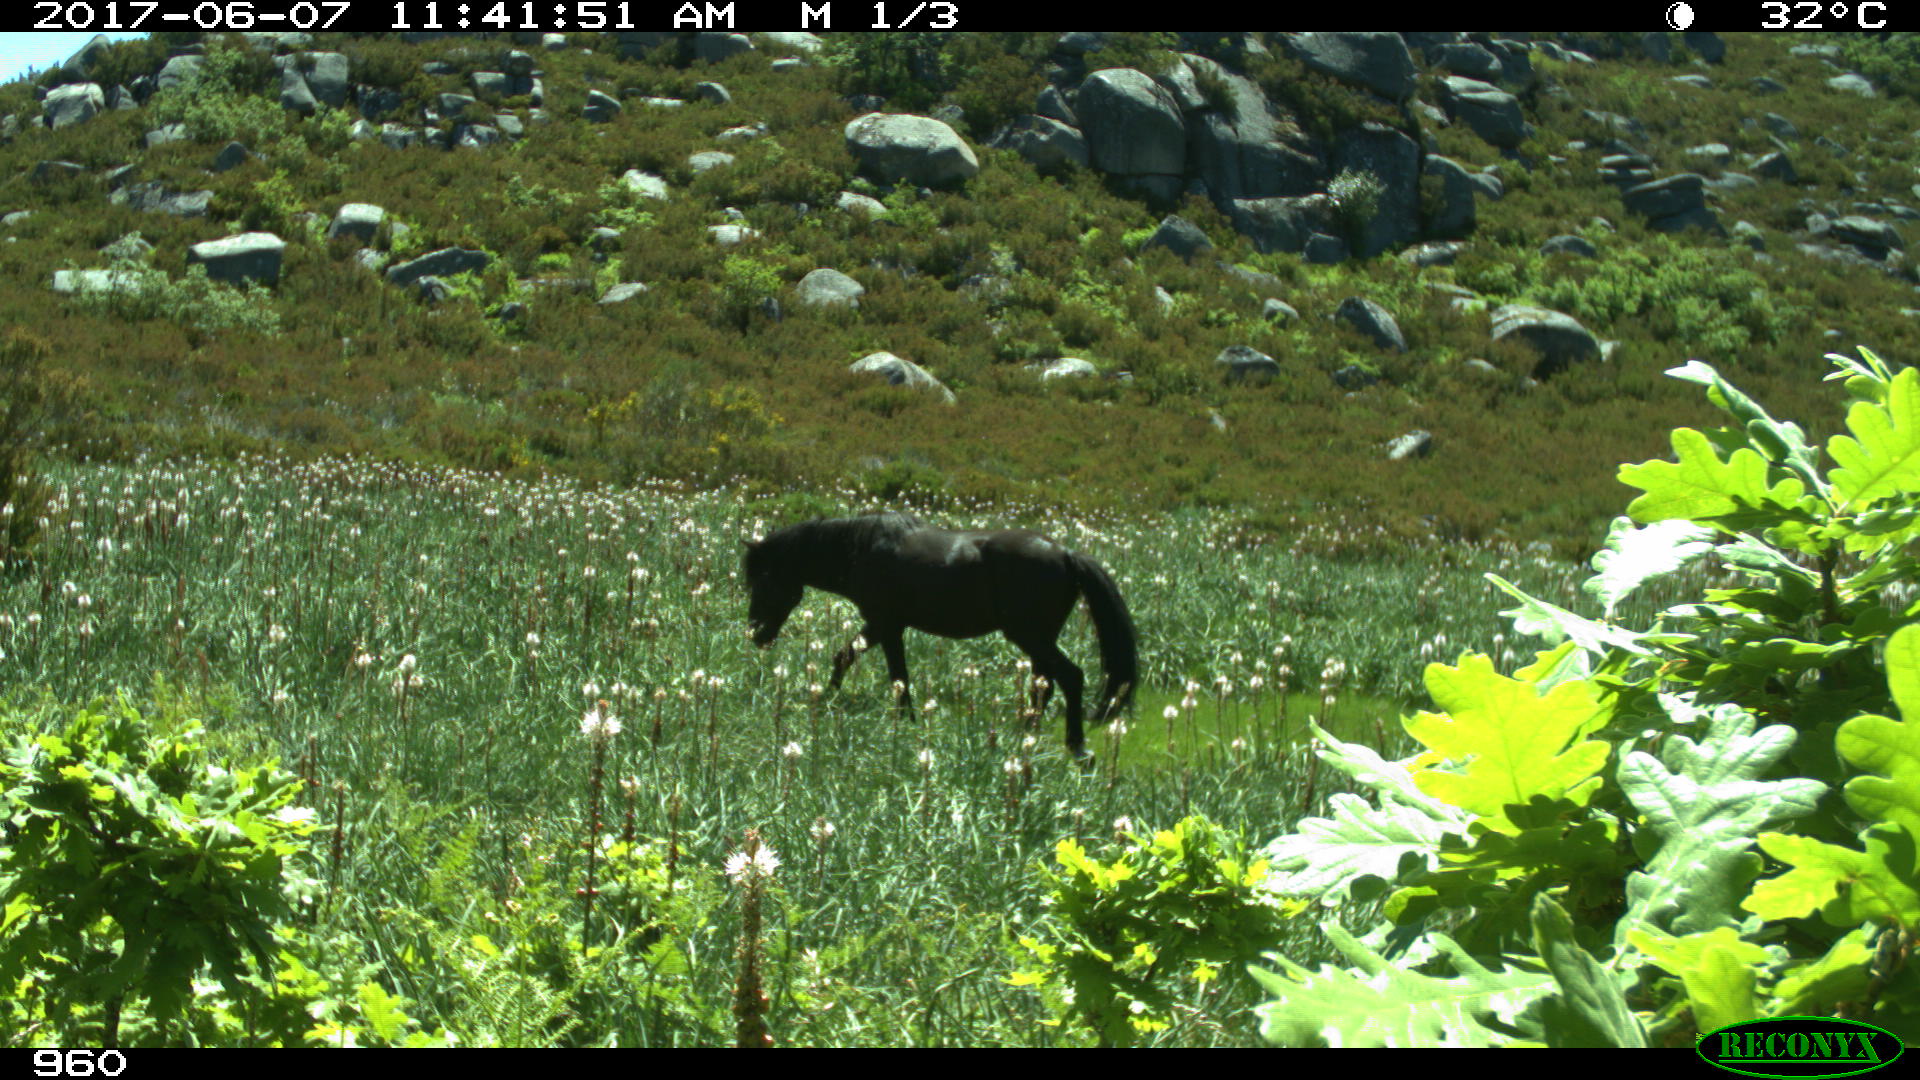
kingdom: Animalia
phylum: Chordata
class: Mammalia
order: Perissodactyla
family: Equidae
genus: Equus
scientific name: Equus caballus
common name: Horse
